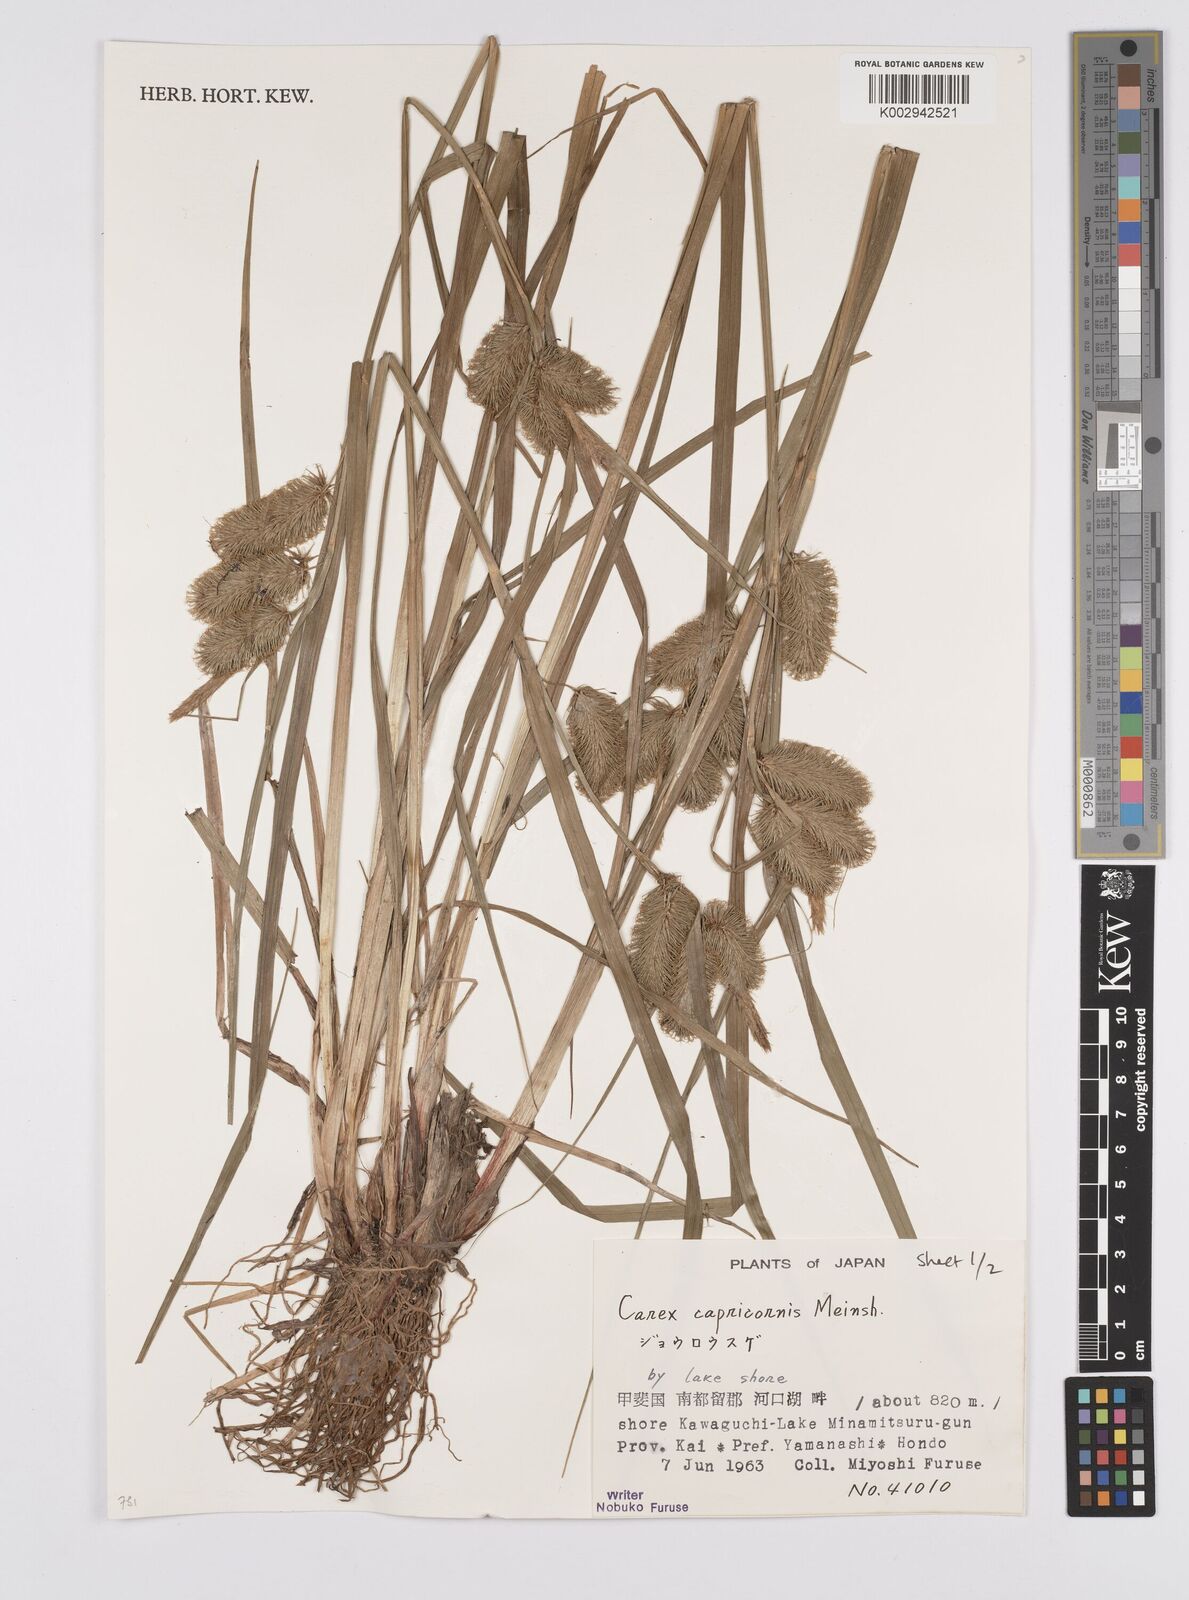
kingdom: Plantae
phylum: Tracheophyta
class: Liliopsida
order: Poales
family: Cyperaceae
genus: Carex
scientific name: Carex capricornis
